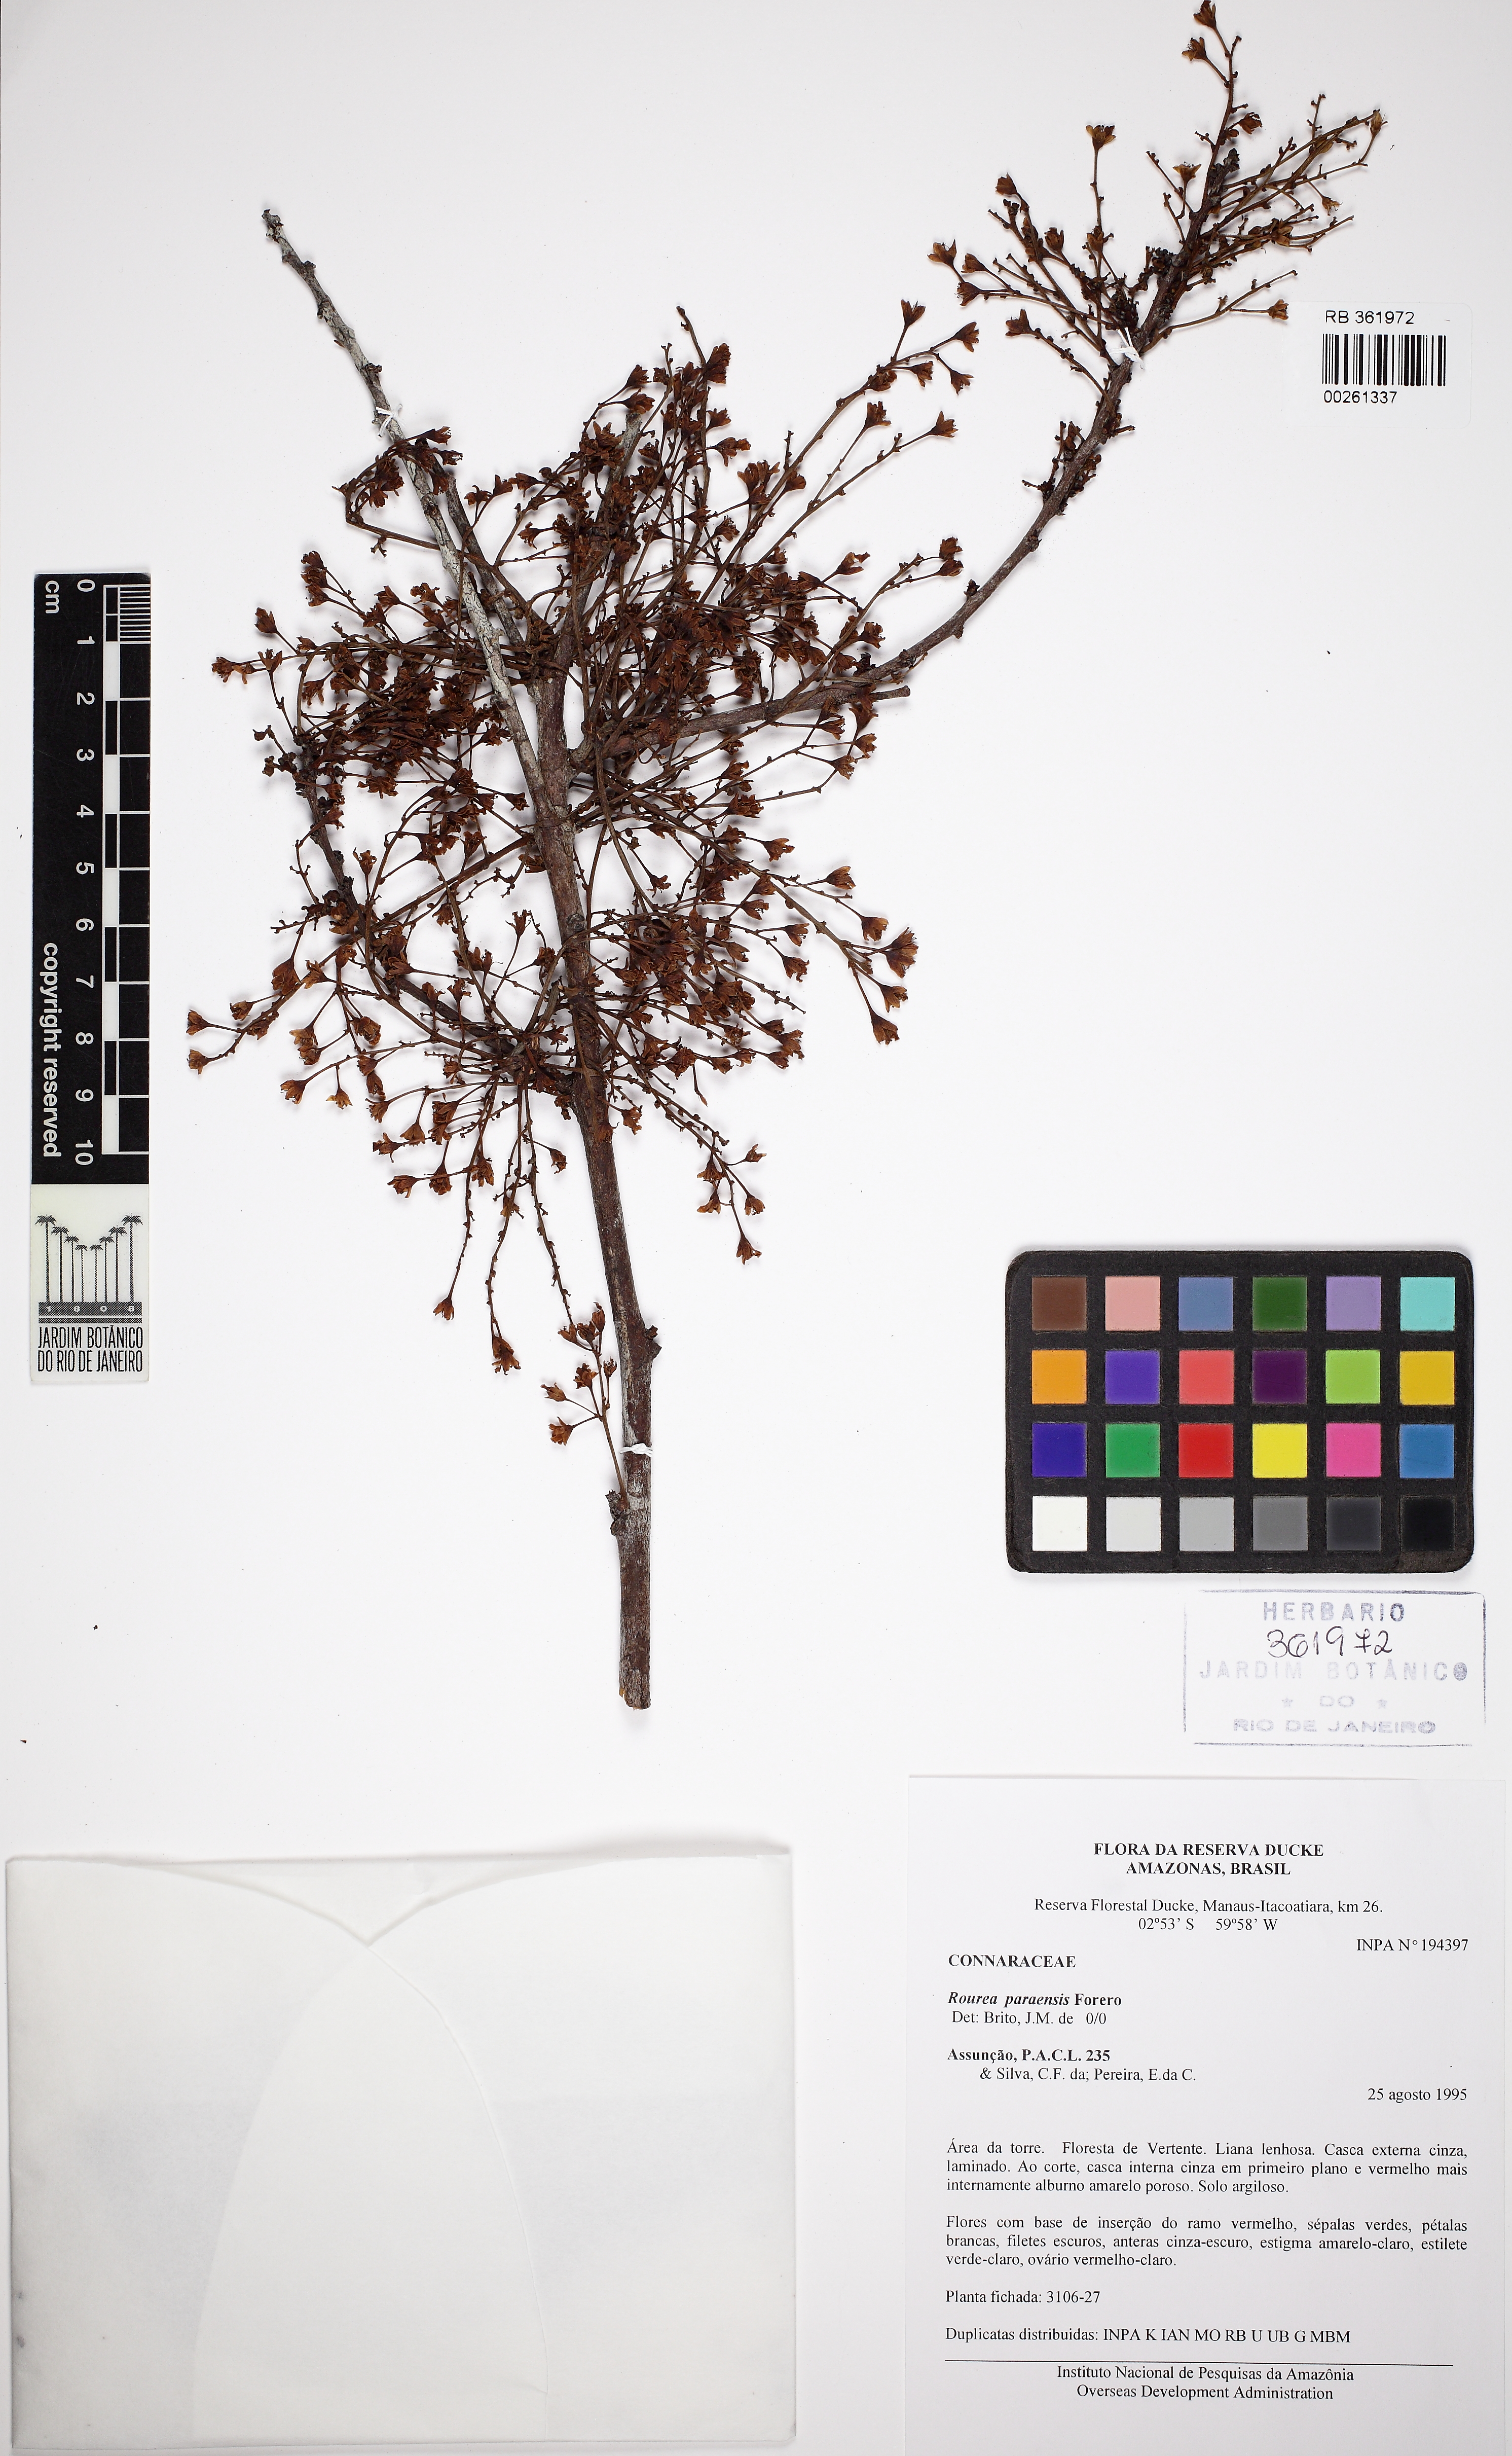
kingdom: Plantae
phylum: Tracheophyta
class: Magnoliopsida
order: Oxalidales
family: Connaraceae
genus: Rourea
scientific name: Rourea paraensis
